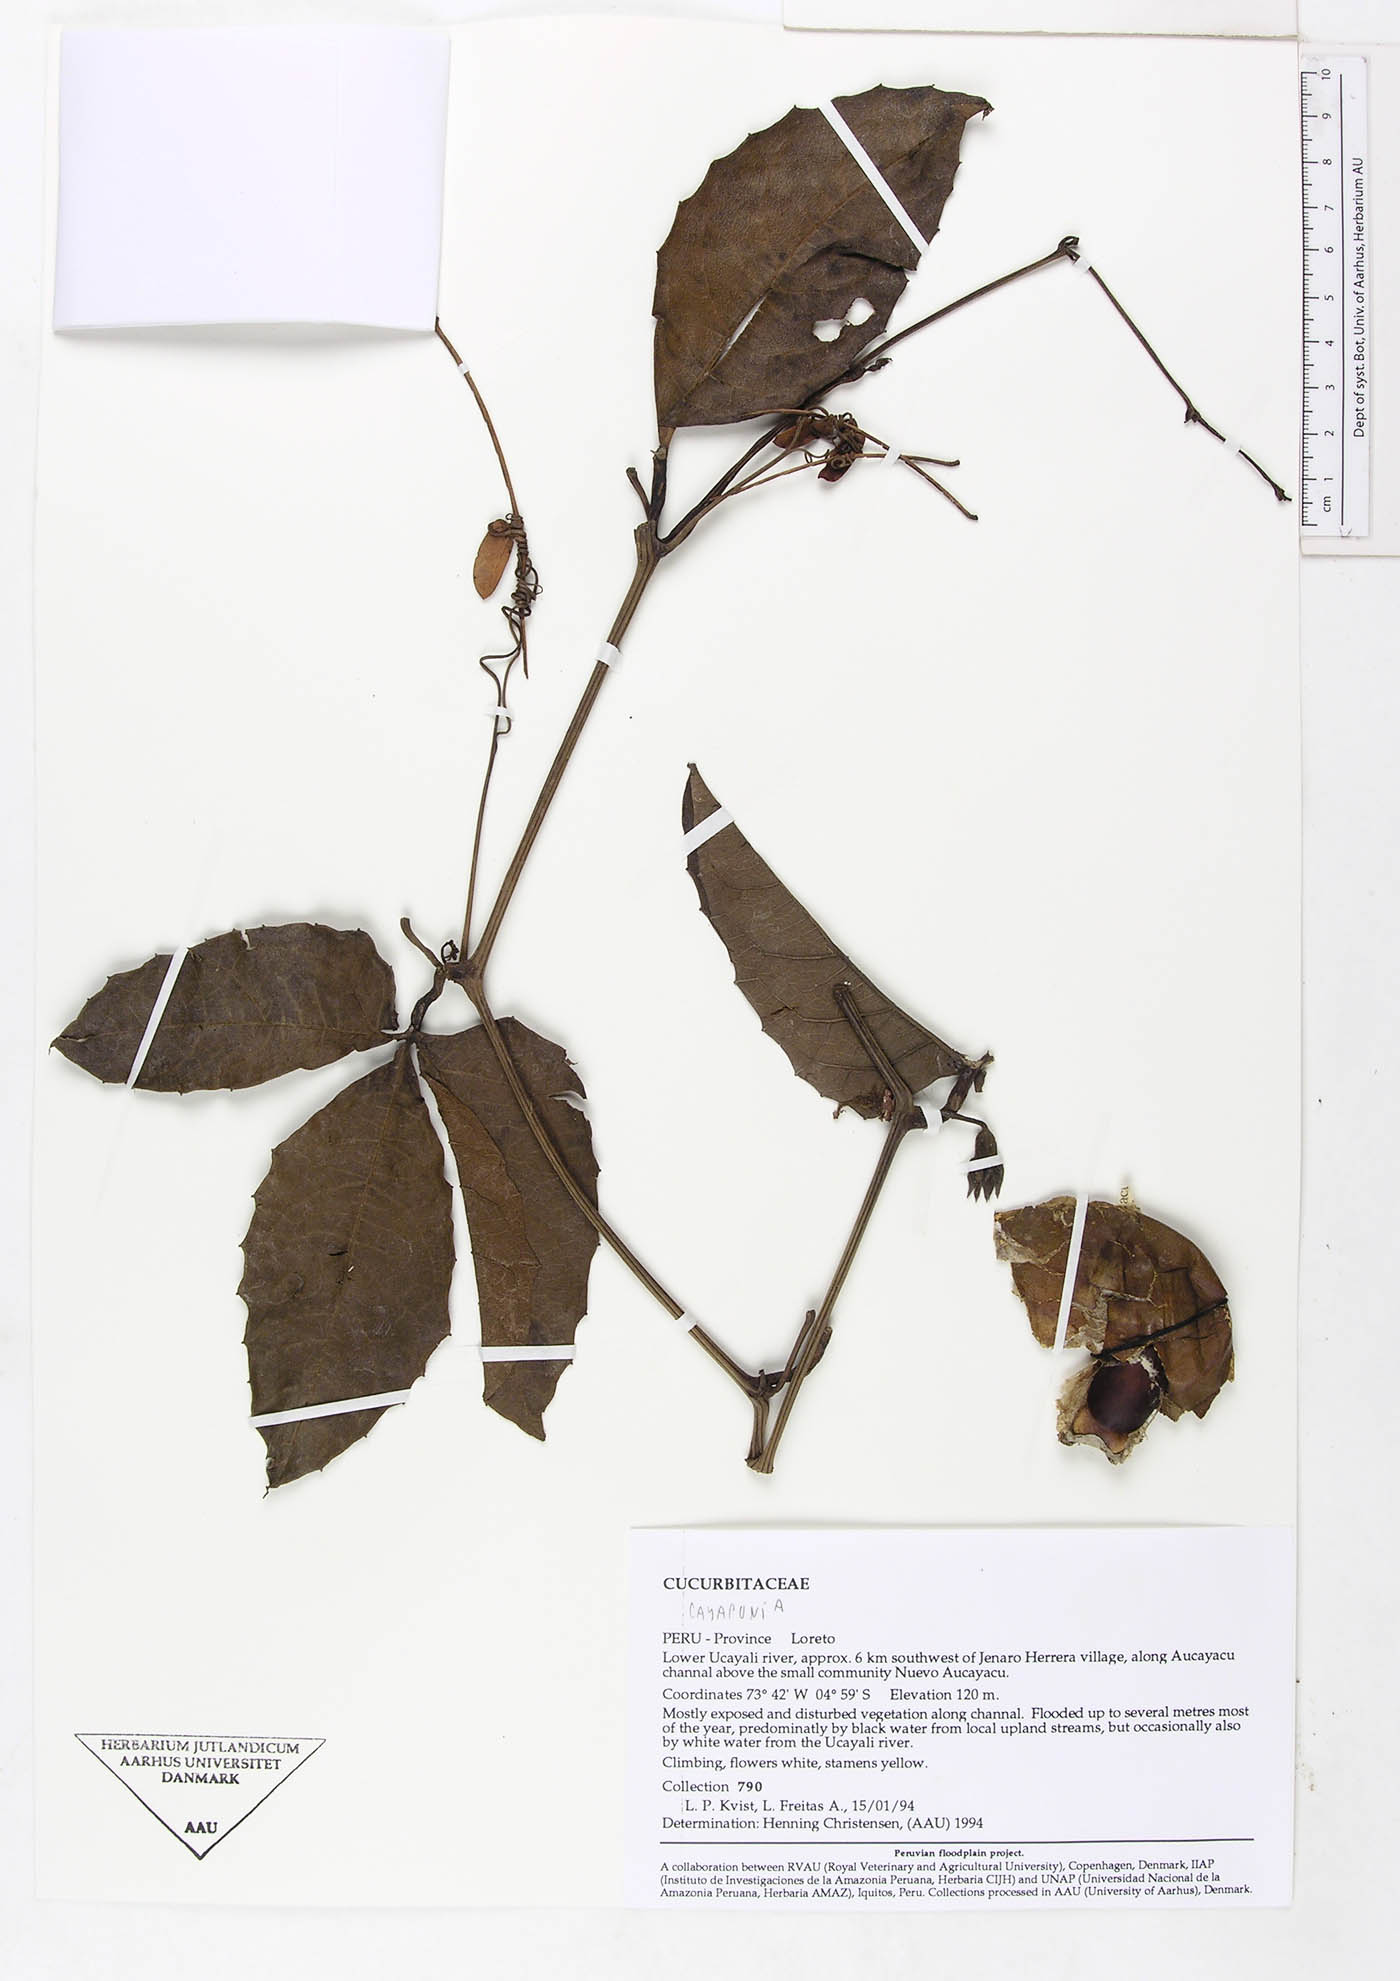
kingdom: Plantae
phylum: Tracheophyta
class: Magnoliopsida
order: Cucurbitales
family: Cucurbitaceae
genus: Cayaponia
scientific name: Cayaponia amazonica
